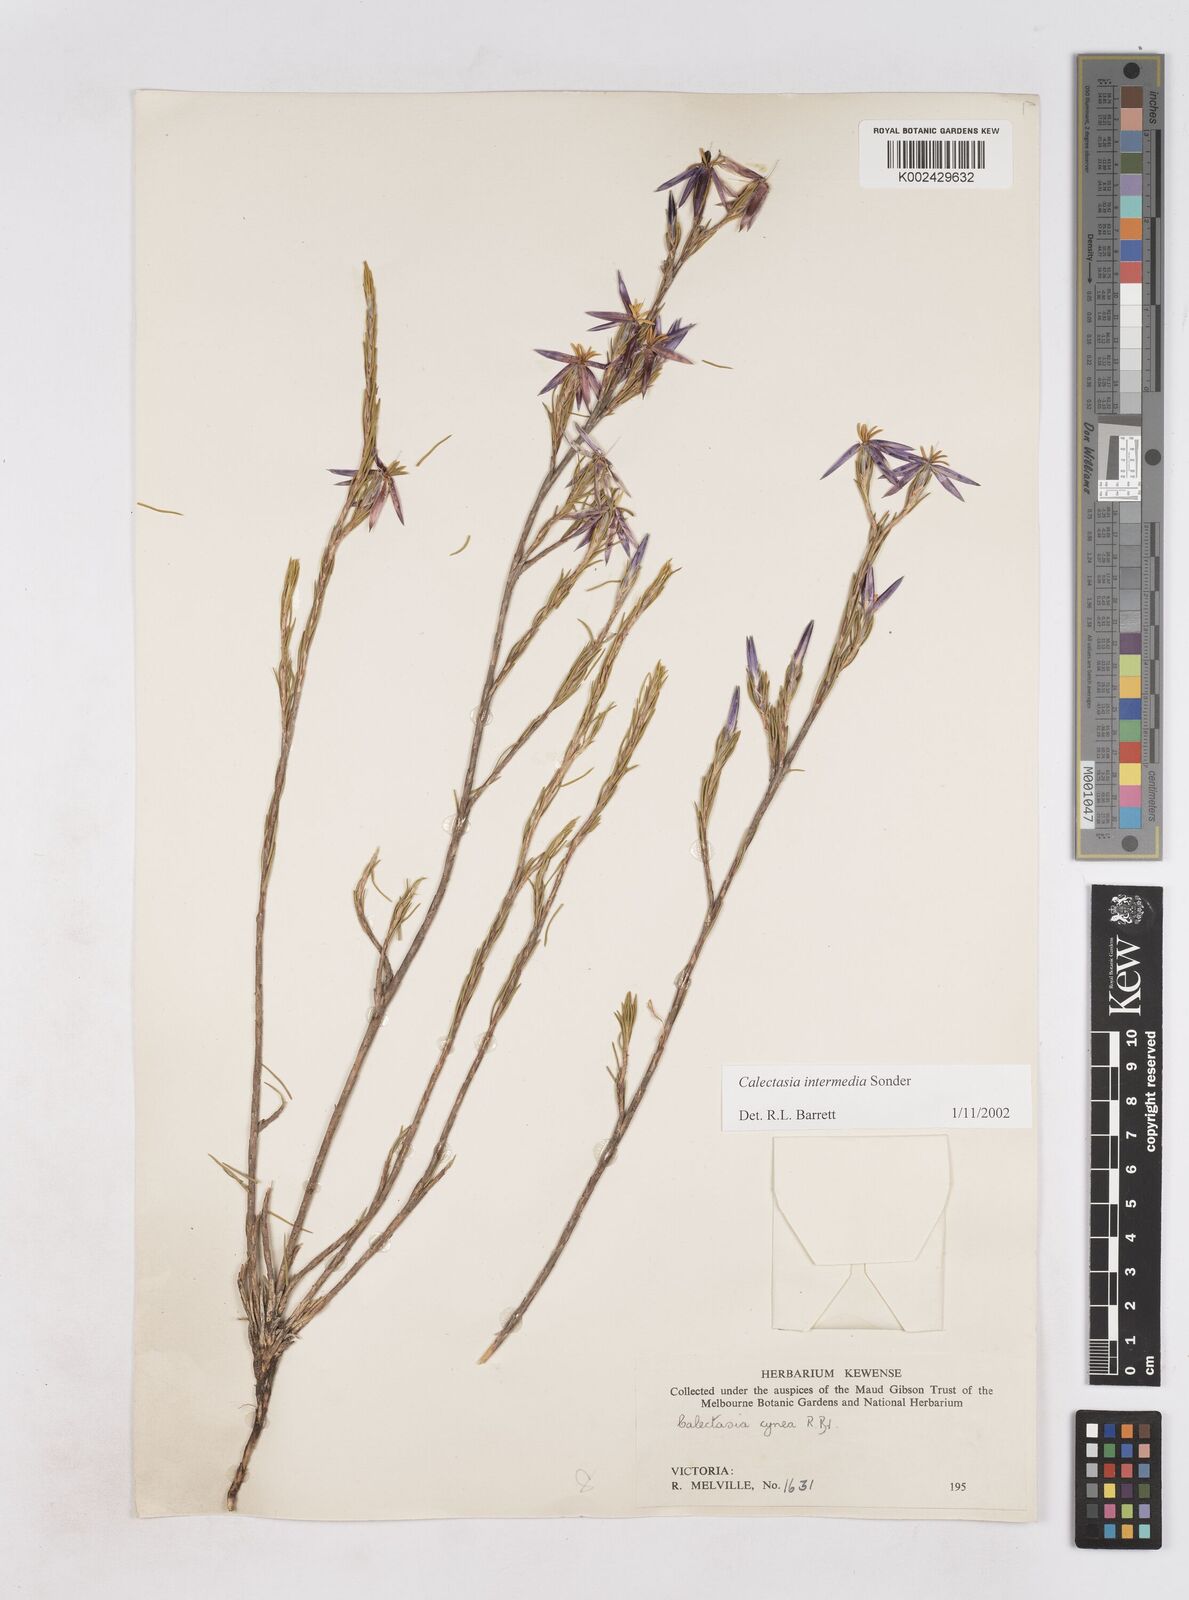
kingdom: Plantae
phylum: Tracheophyta
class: Liliopsida
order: Arecales
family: Dasypogonaceae
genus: Calectasia
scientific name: Calectasia intermedia
